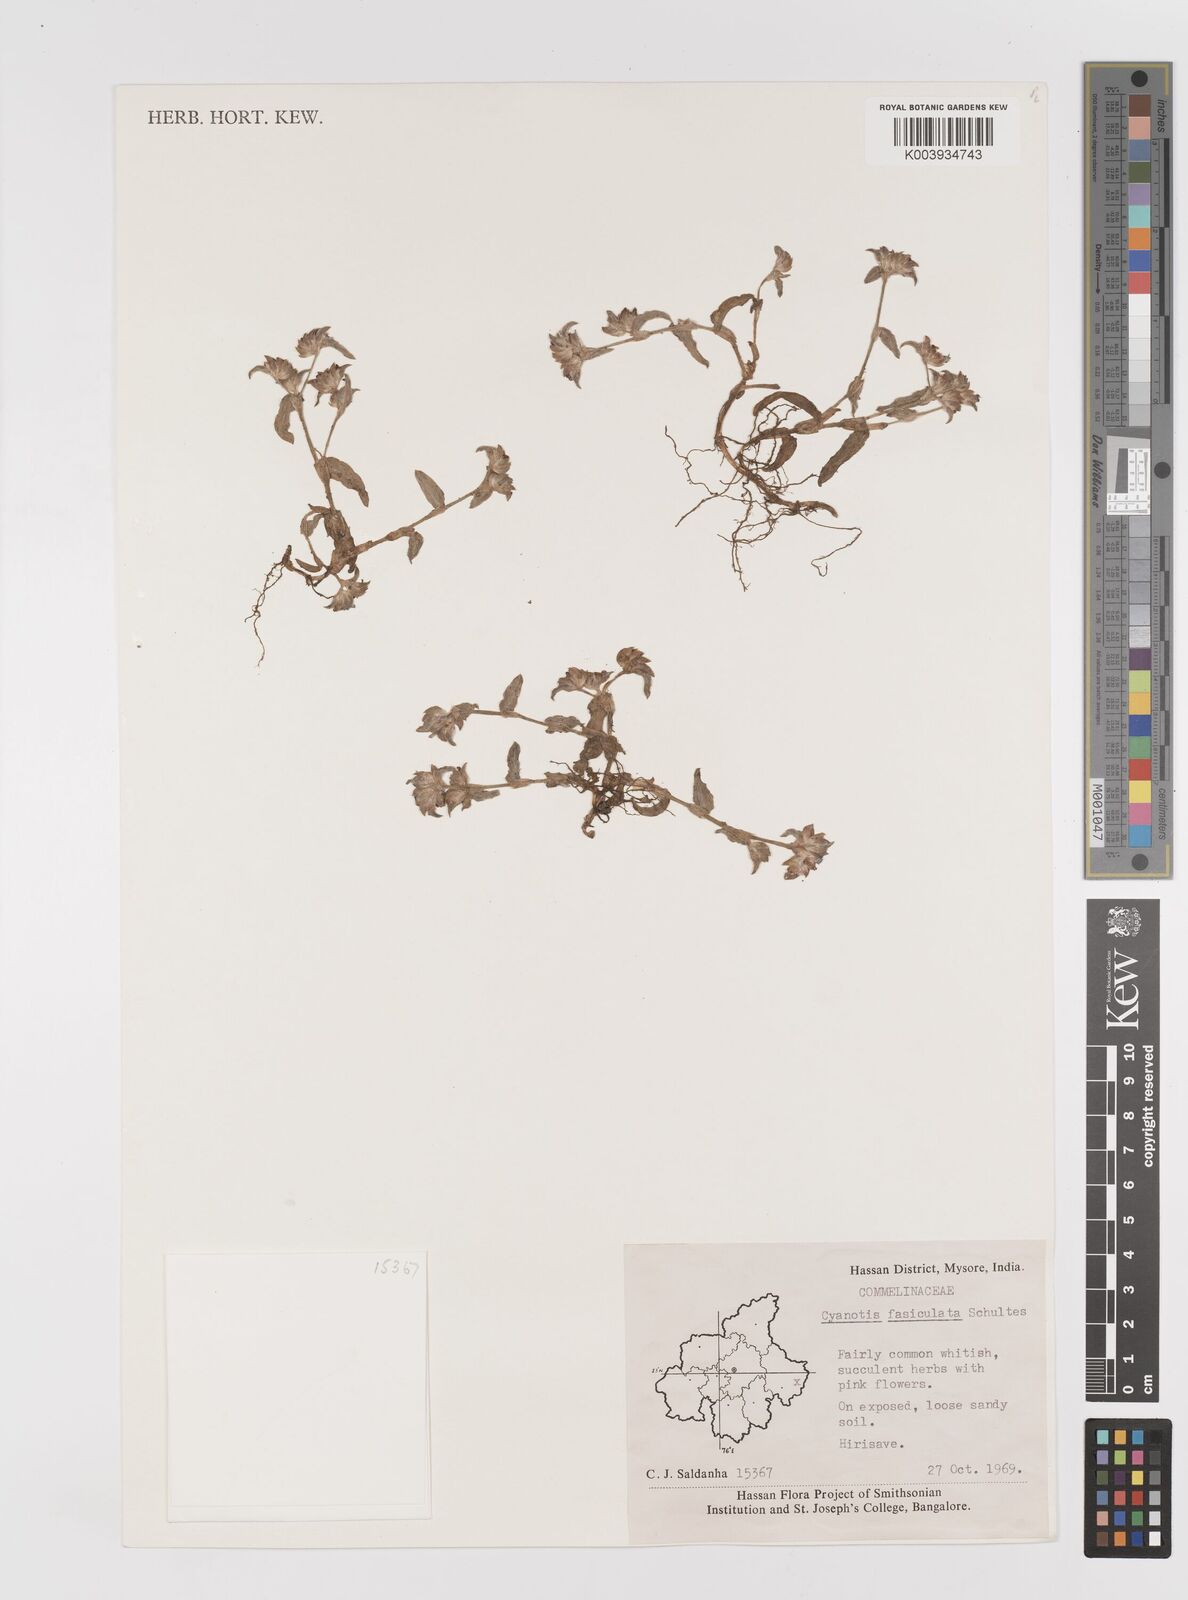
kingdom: Plantae
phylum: Tracheophyta
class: Liliopsida
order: Commelinales
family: Commelinaceae
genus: Cyanotis
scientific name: Cyanotis fasciculata
